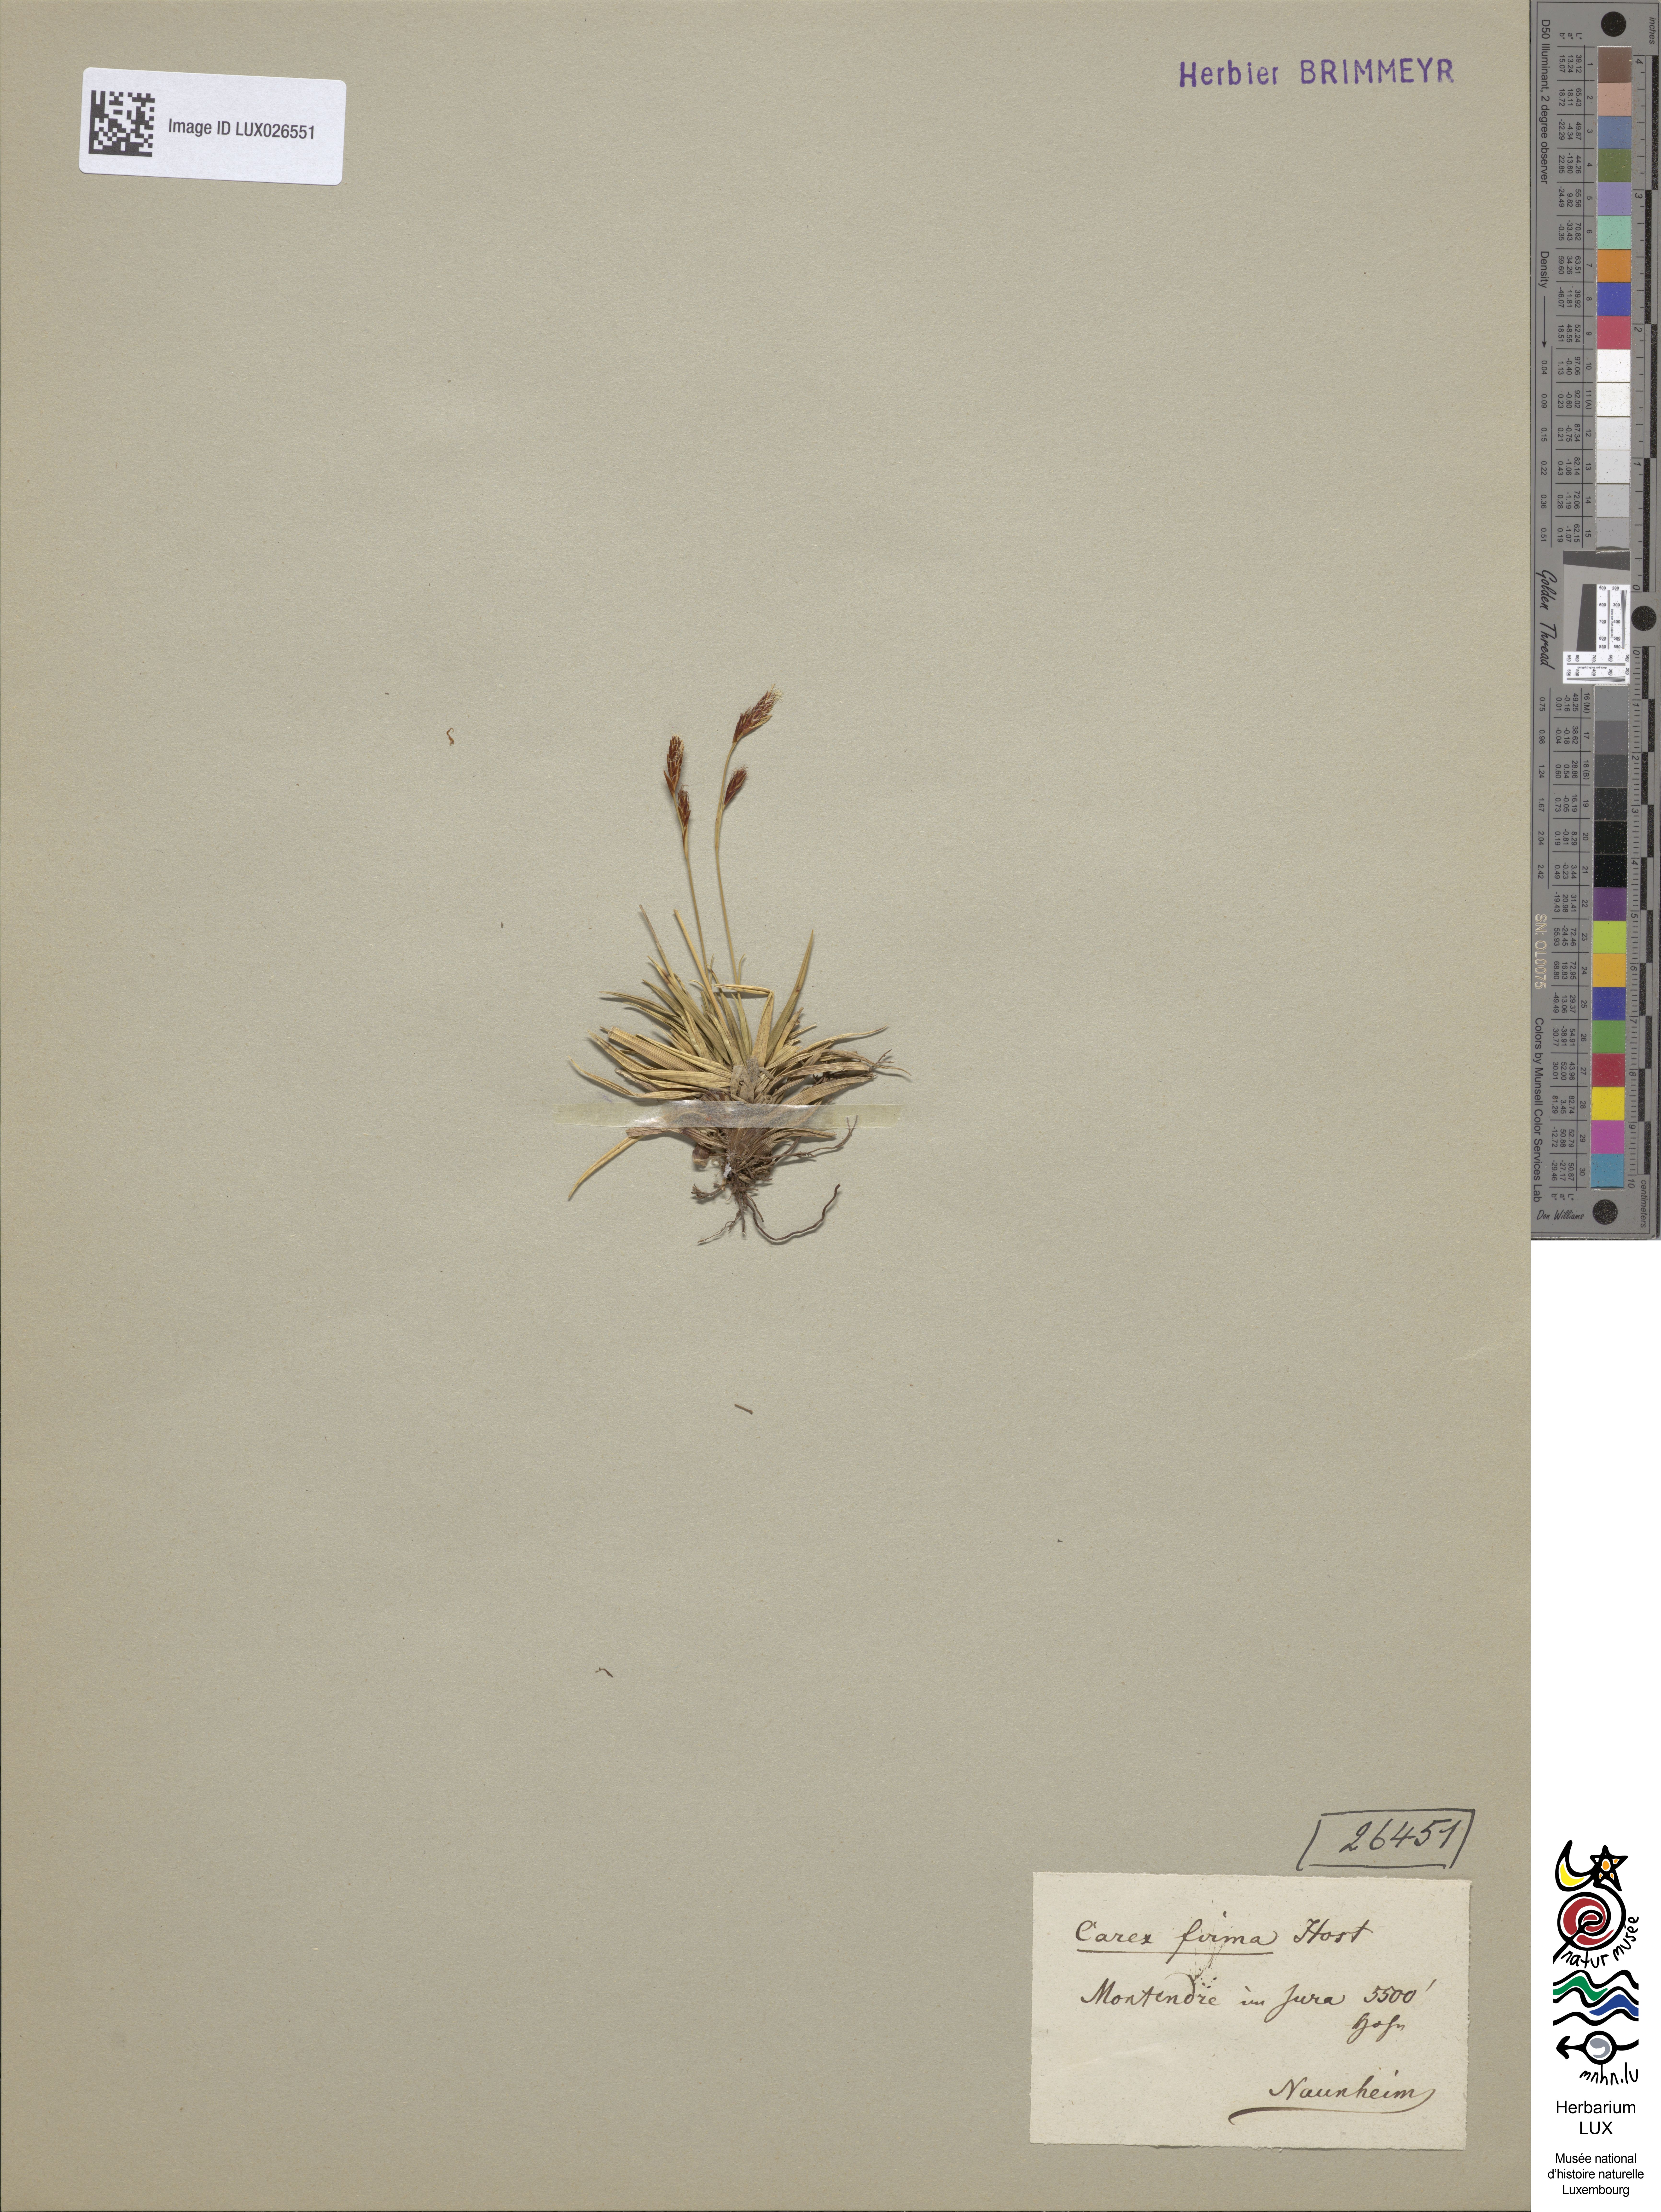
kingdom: Plantae
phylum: Tracheophyta
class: Liliopsida
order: Poales
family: Cyperaceae
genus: Carex
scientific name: Carex firma
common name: Dwarf pillow sedge
